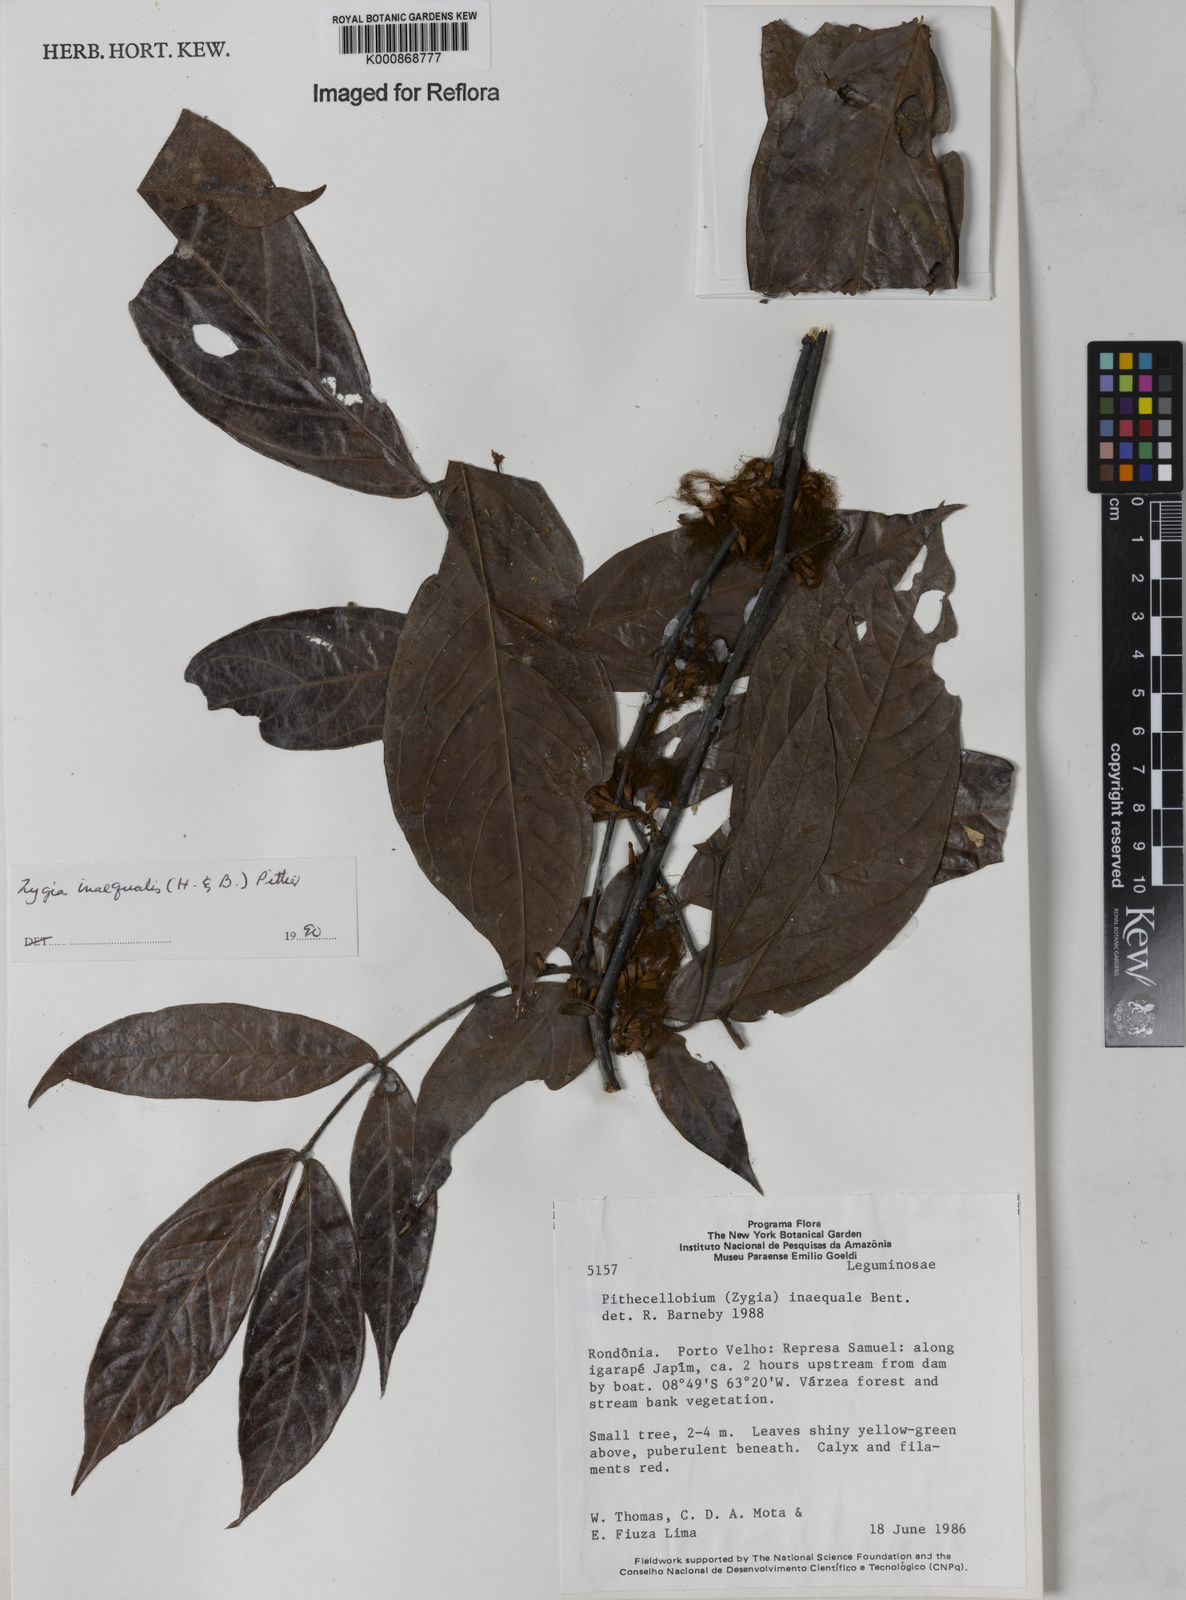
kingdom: Plantae
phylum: Tracheophyta
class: Magnoliopsida
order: Fabales
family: Fabaceae
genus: Zygia
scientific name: Zygia inaequalis
